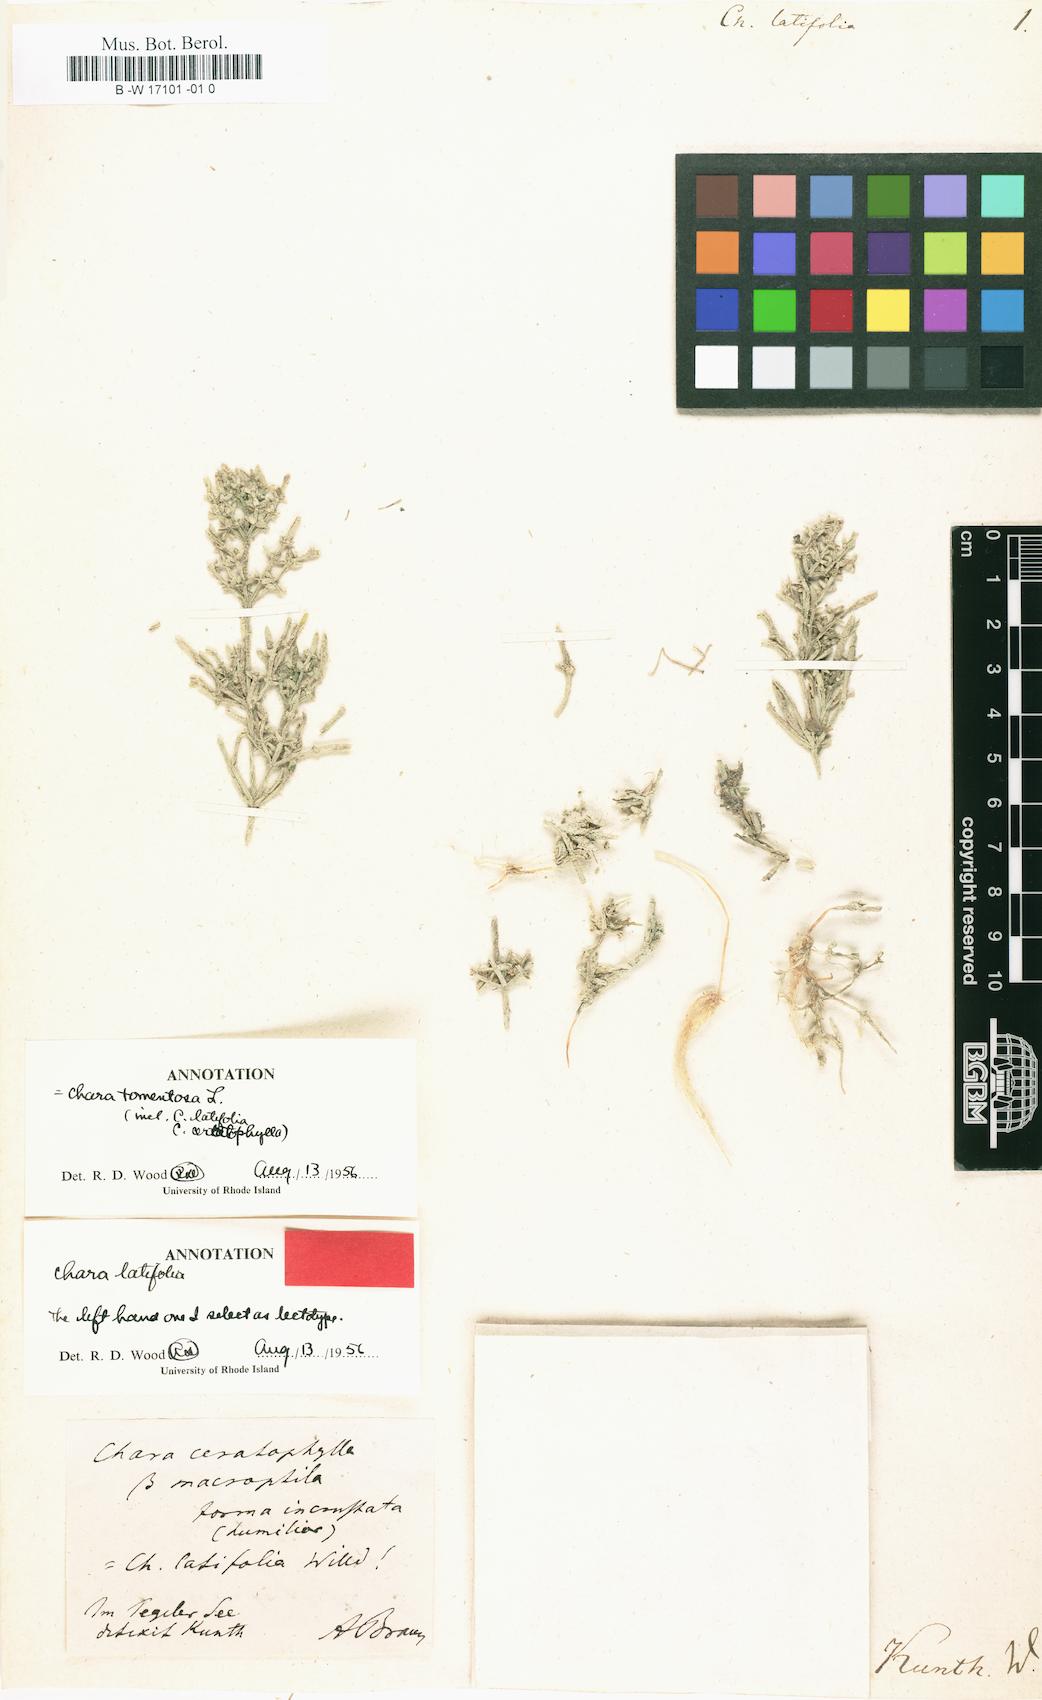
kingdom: Plantae
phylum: Charophyta
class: Charophyceae
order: Charales
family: Characeae
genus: Chara
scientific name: Chara tomentosa
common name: Coral stonewort
